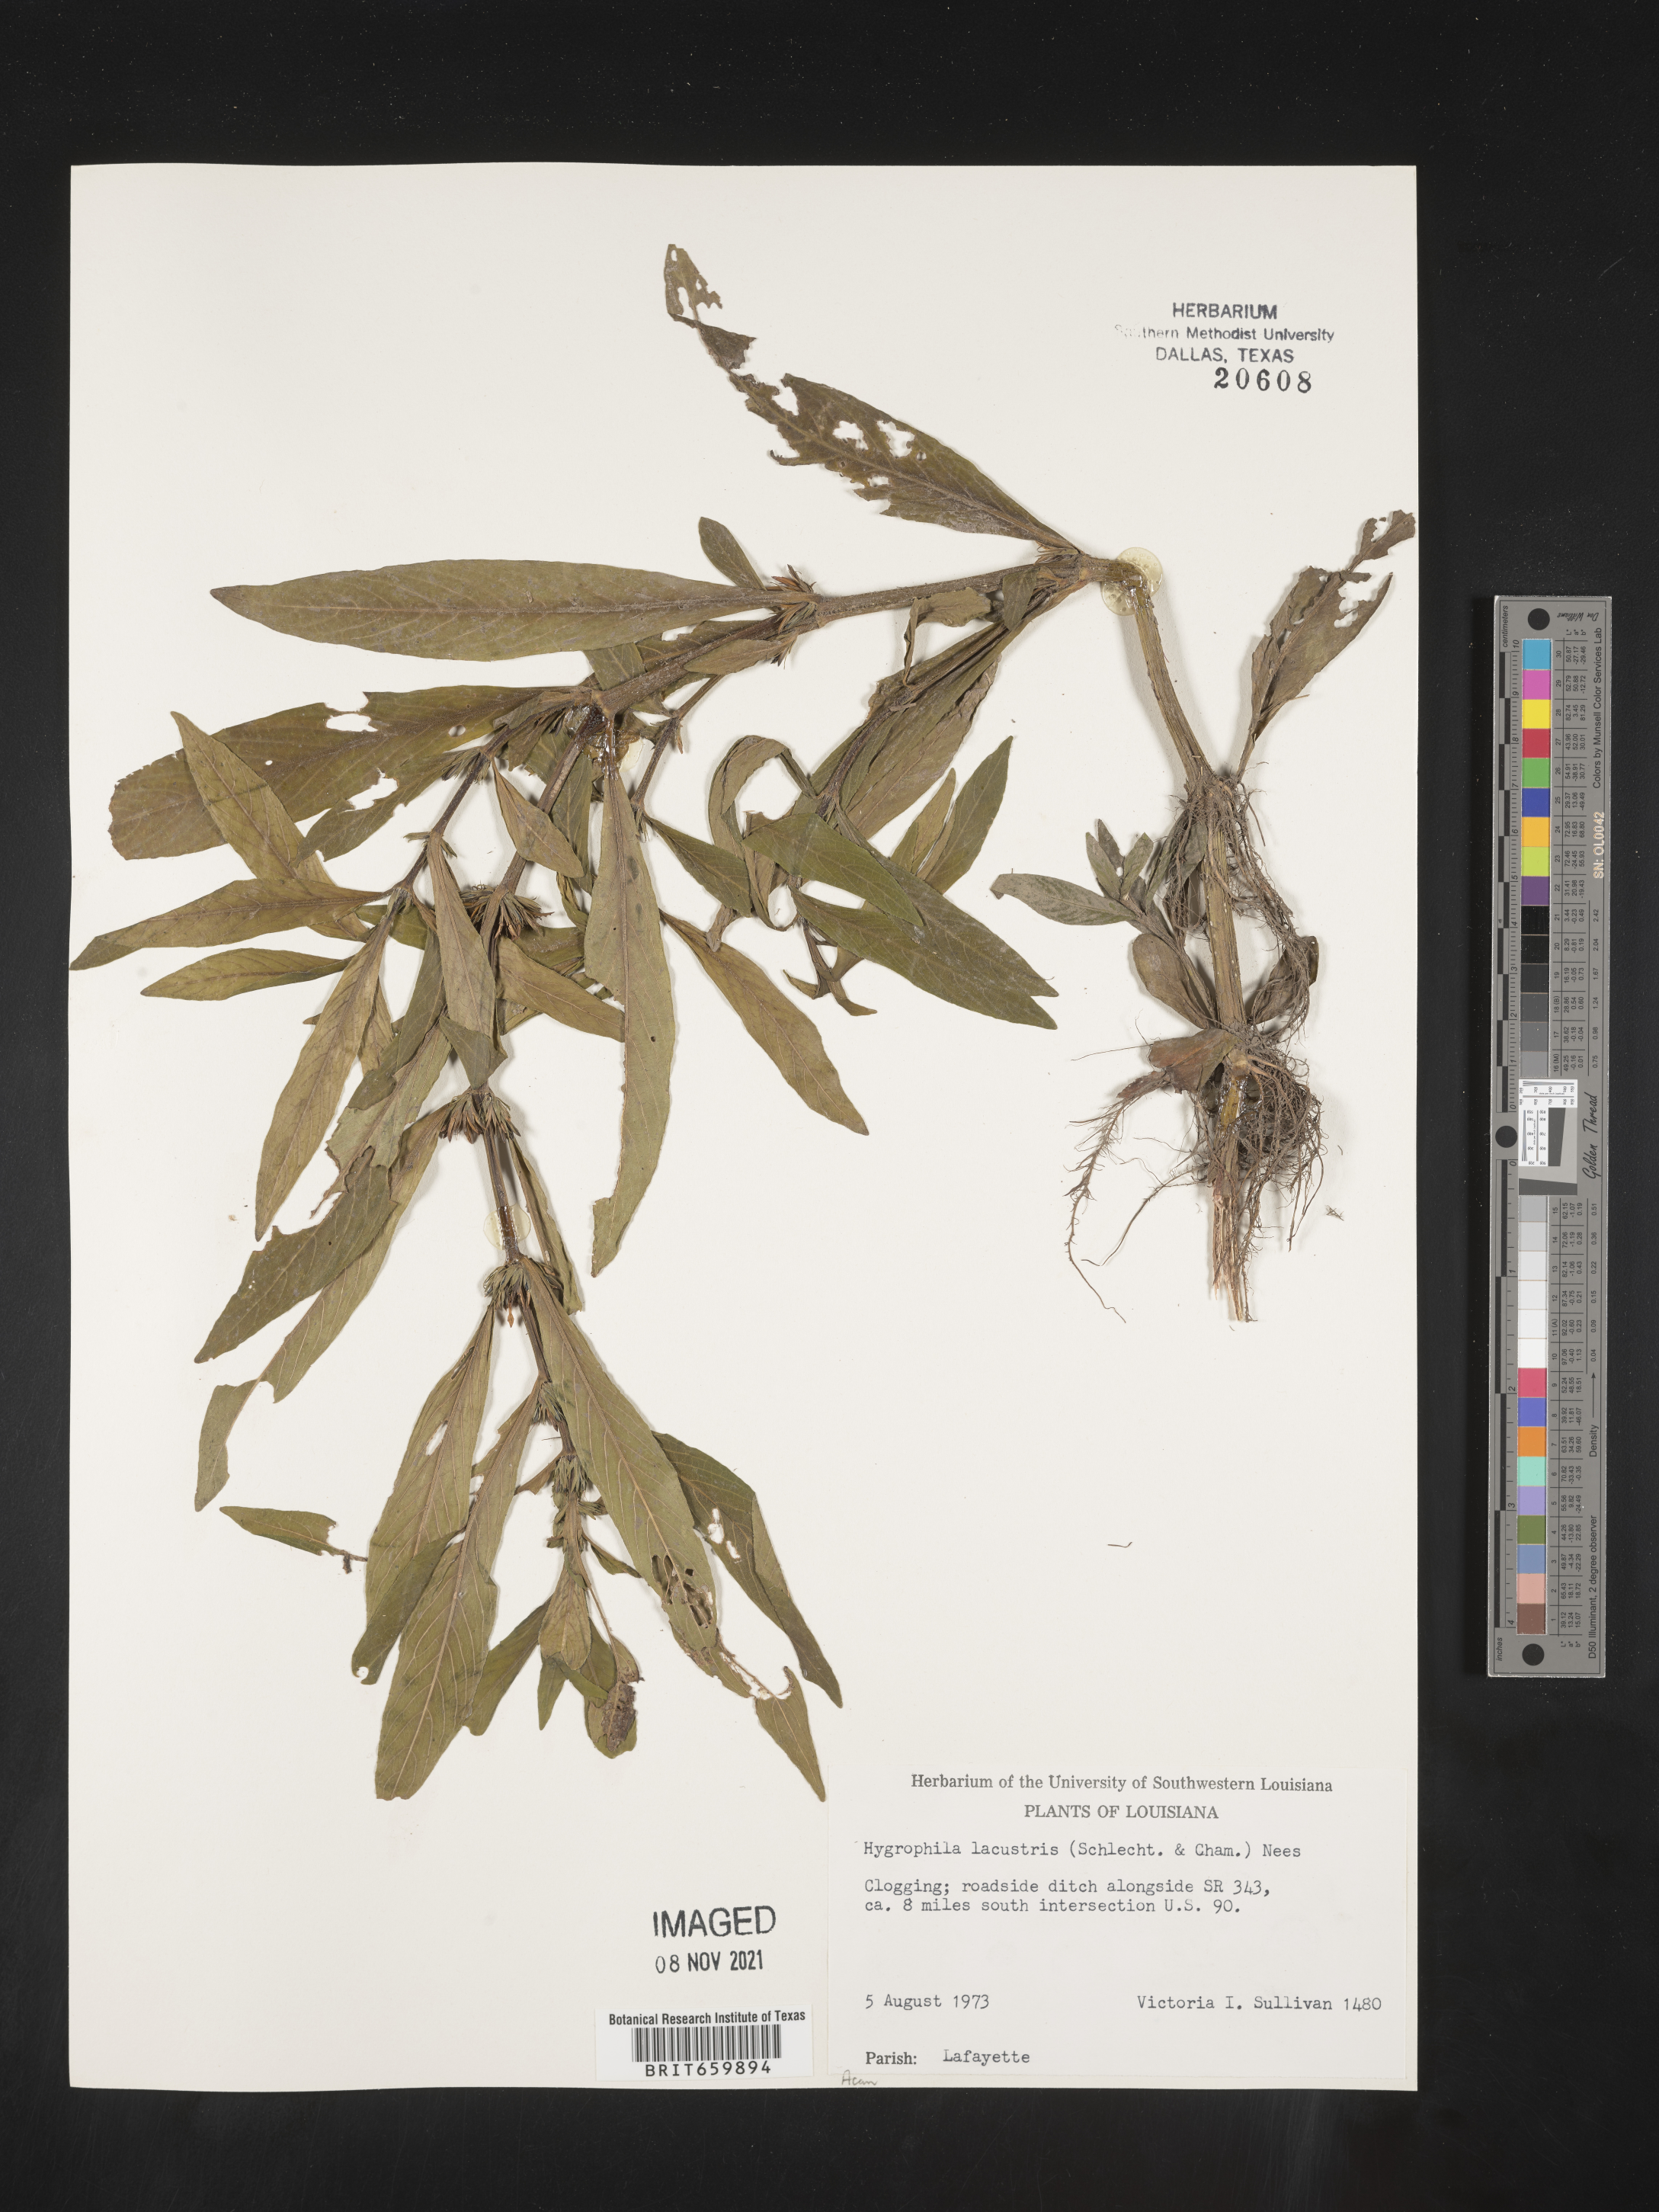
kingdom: Plantae
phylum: Tracheophyta
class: Magnoliopsida
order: Lamiales
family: Acanthaceae
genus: Hygrophila
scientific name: Hygrophila costata
